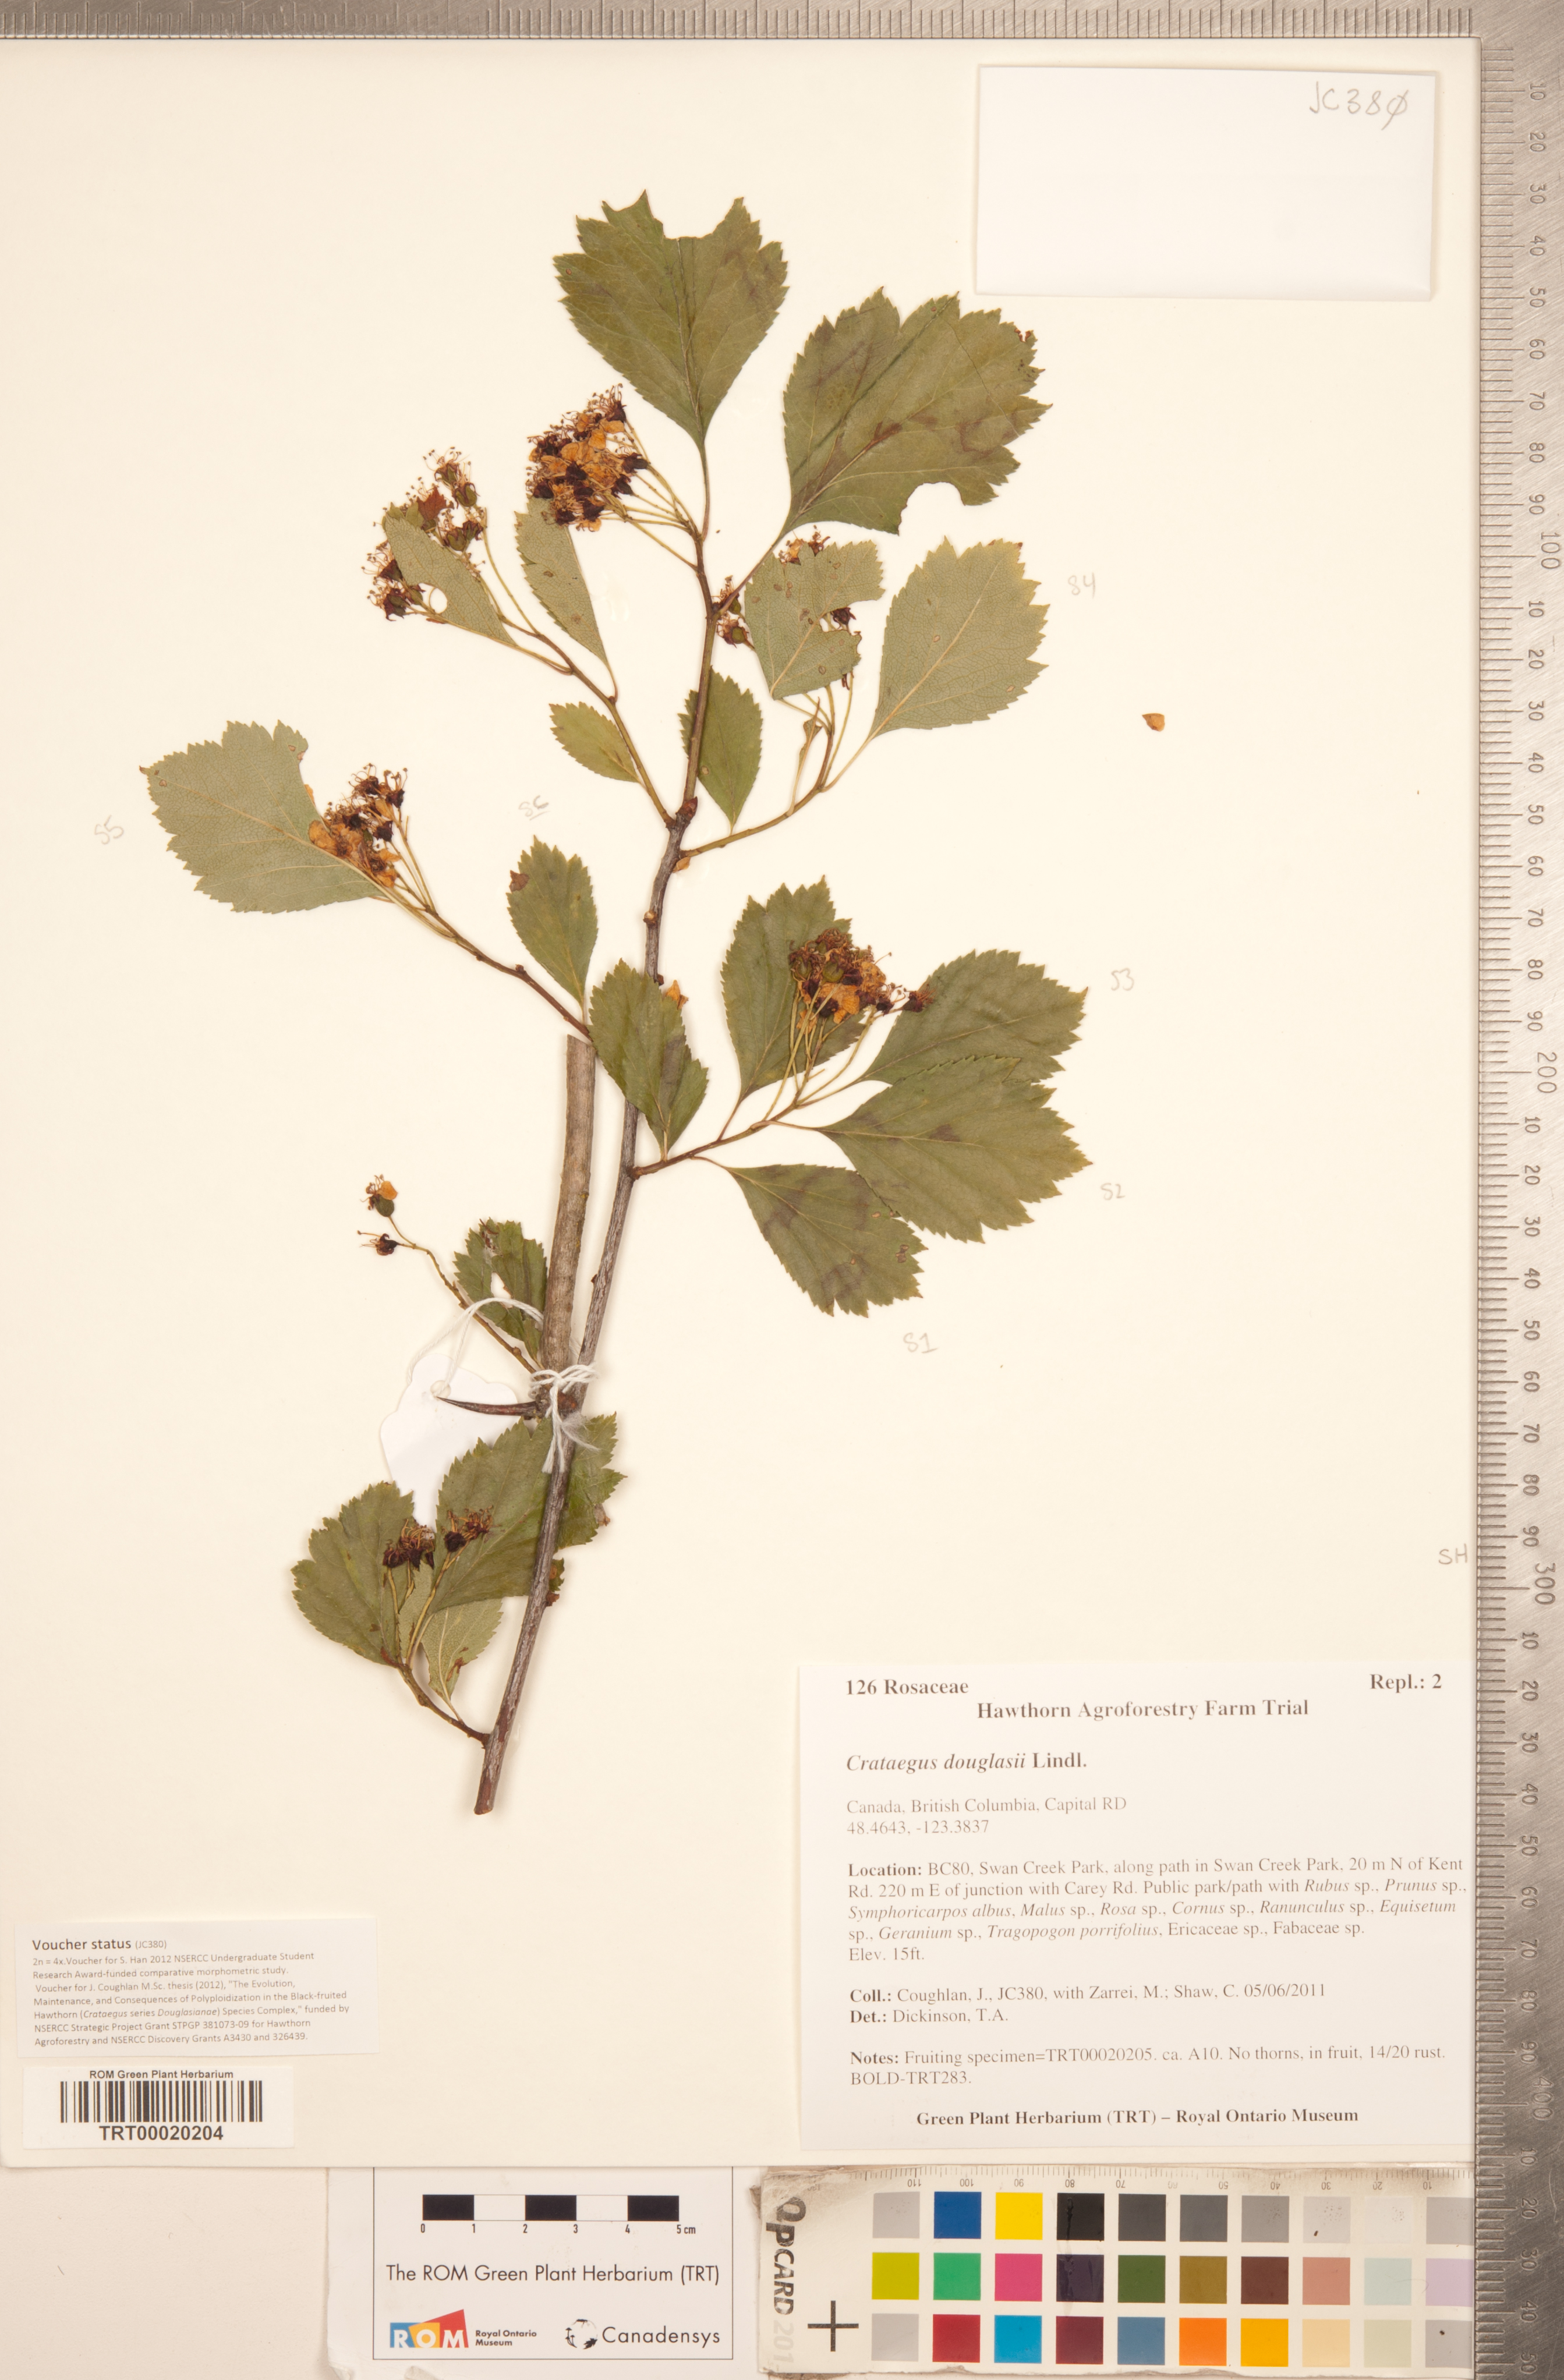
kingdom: Plantae
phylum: Tracheophyta
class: Magnoliopsida
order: Rosales
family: Rosaceae
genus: Crataegus
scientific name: Crataegus douglasii
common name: Black hawthorn
